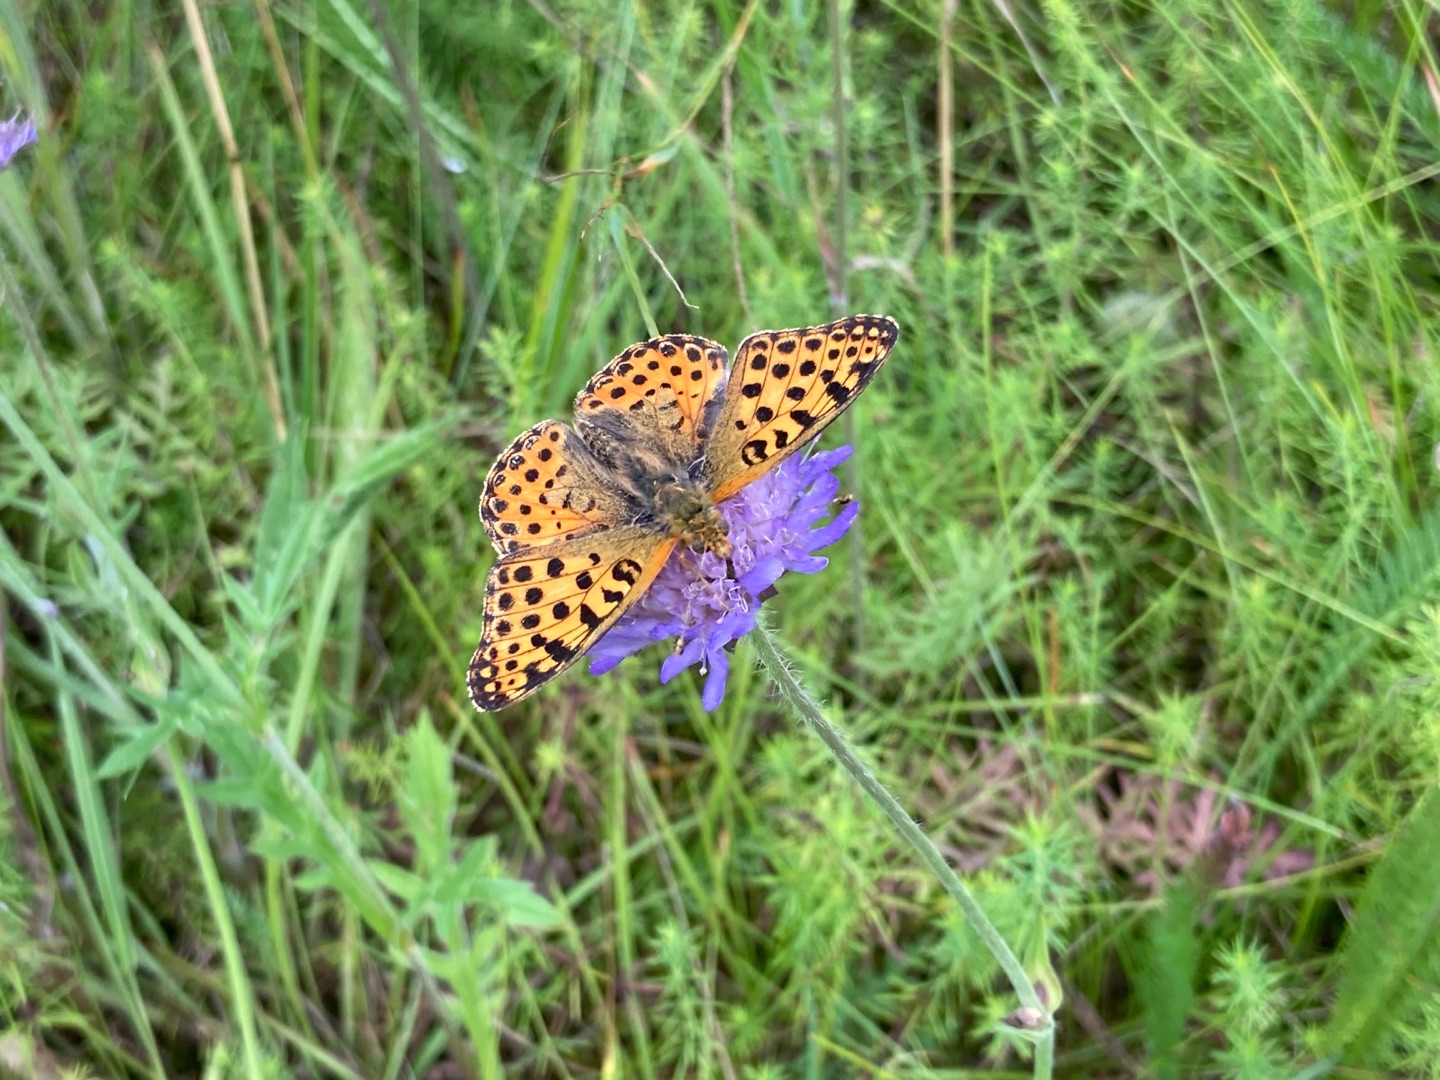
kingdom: Animalia
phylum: Arthropoda
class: Insecta
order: Lepidoptera
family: Nymphalidae
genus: Issoria
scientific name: Issoria lathonia
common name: Storplettet perlemorsommerfugl
